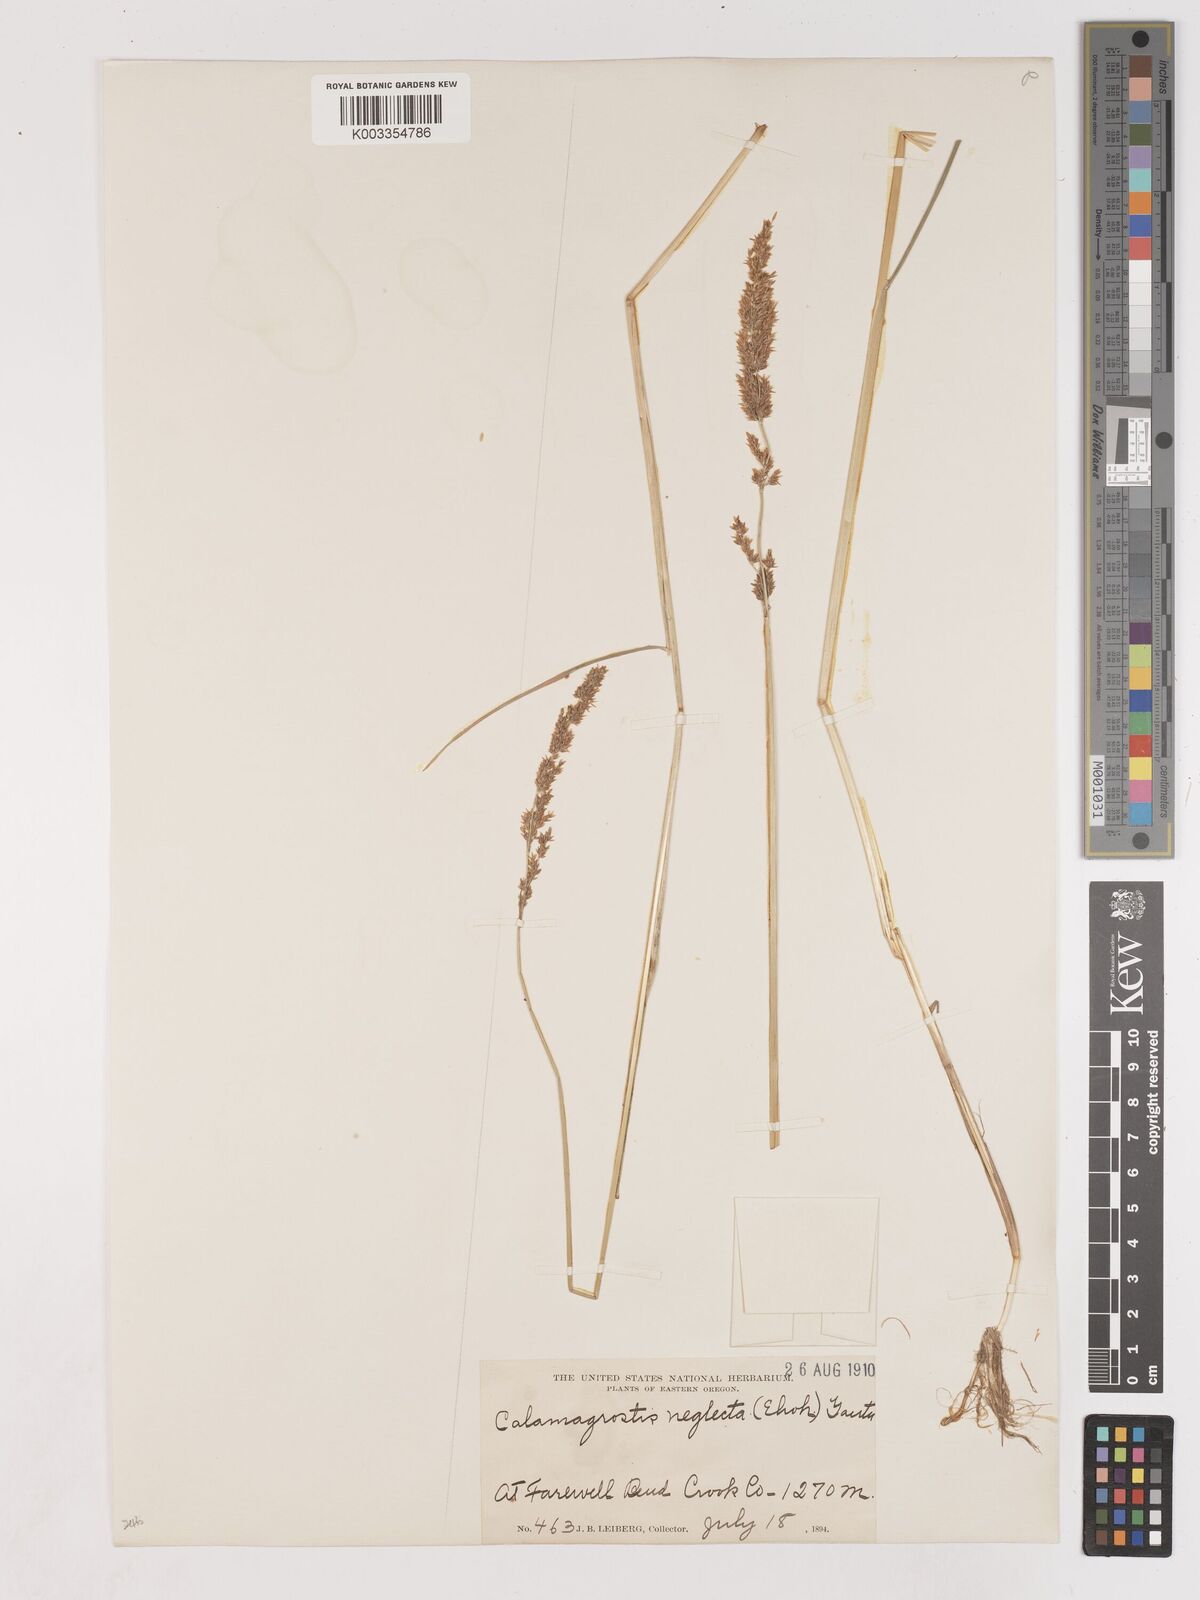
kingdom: Plantae
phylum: Tracheophyta
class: Liliopsida
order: Poales
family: Poaceae
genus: Cinnagrostis
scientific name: Cinnagrostis recta
